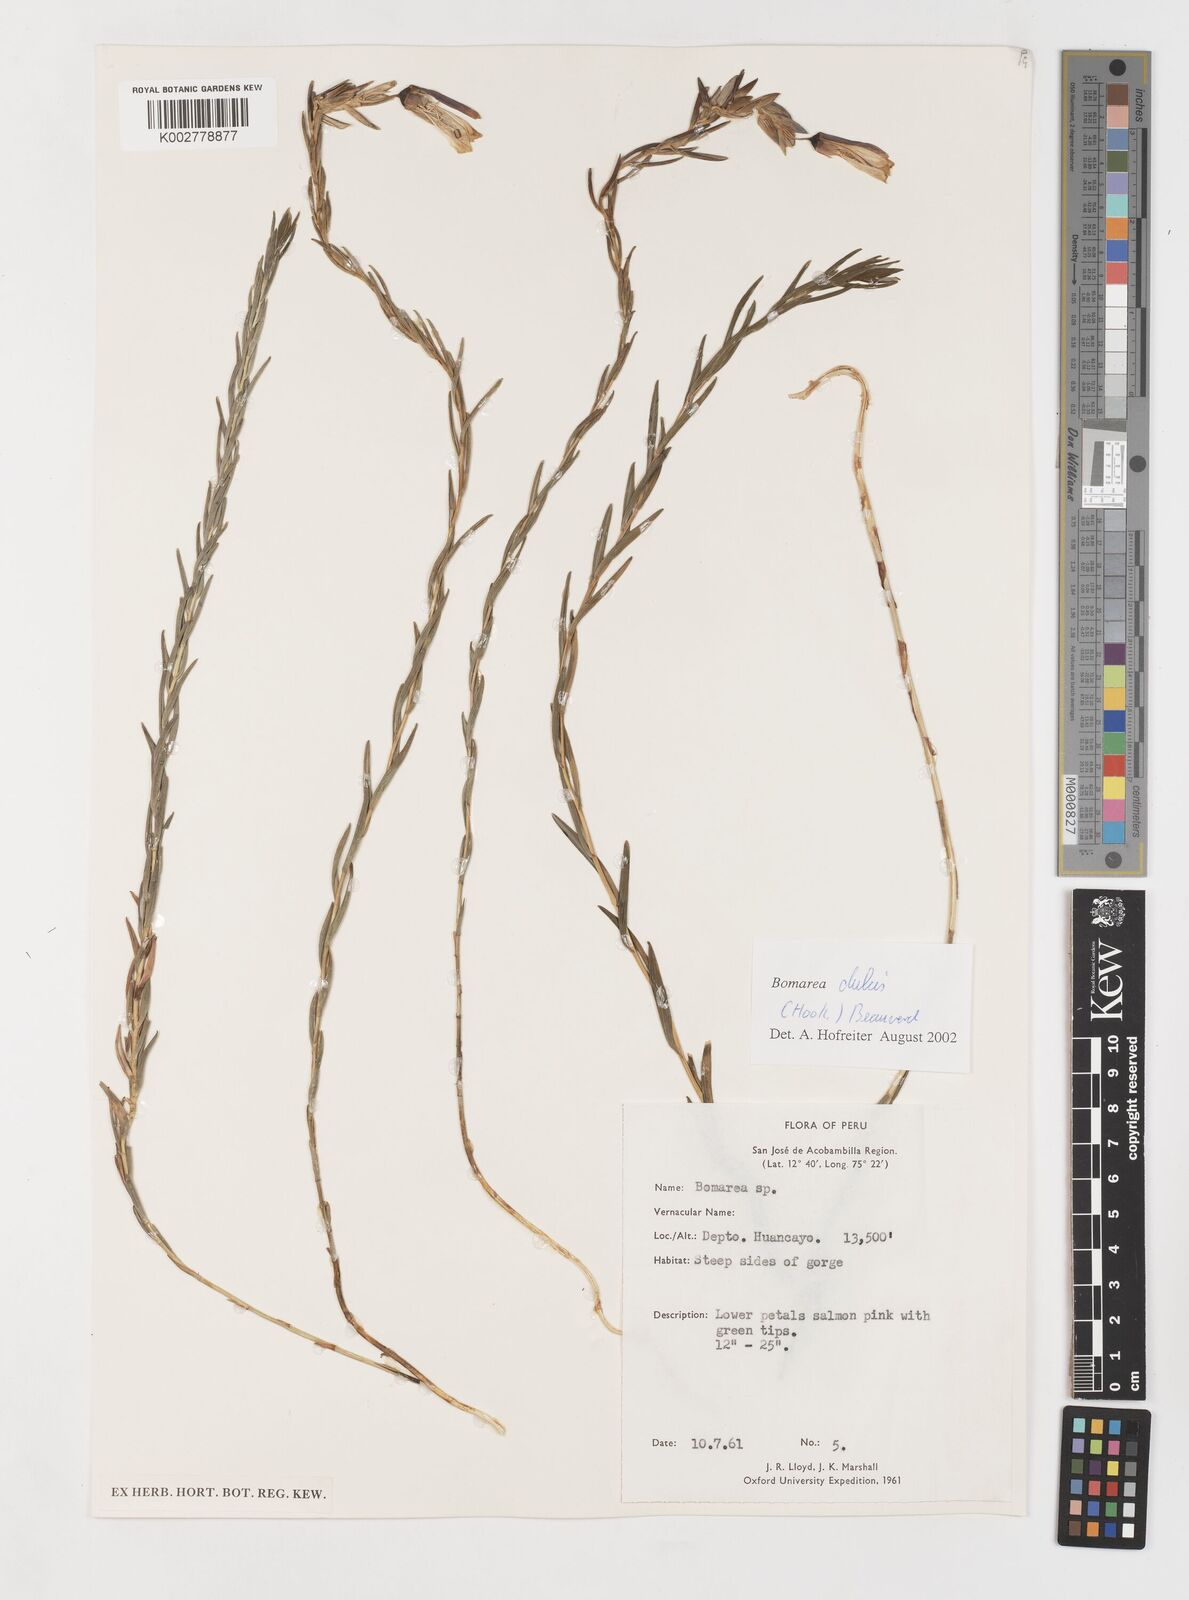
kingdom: Plantae
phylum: Tracheophyta
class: Liliopsida
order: Liliales
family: Alstroemeriaceae
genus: Bomarea
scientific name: Bomarea dulcis
